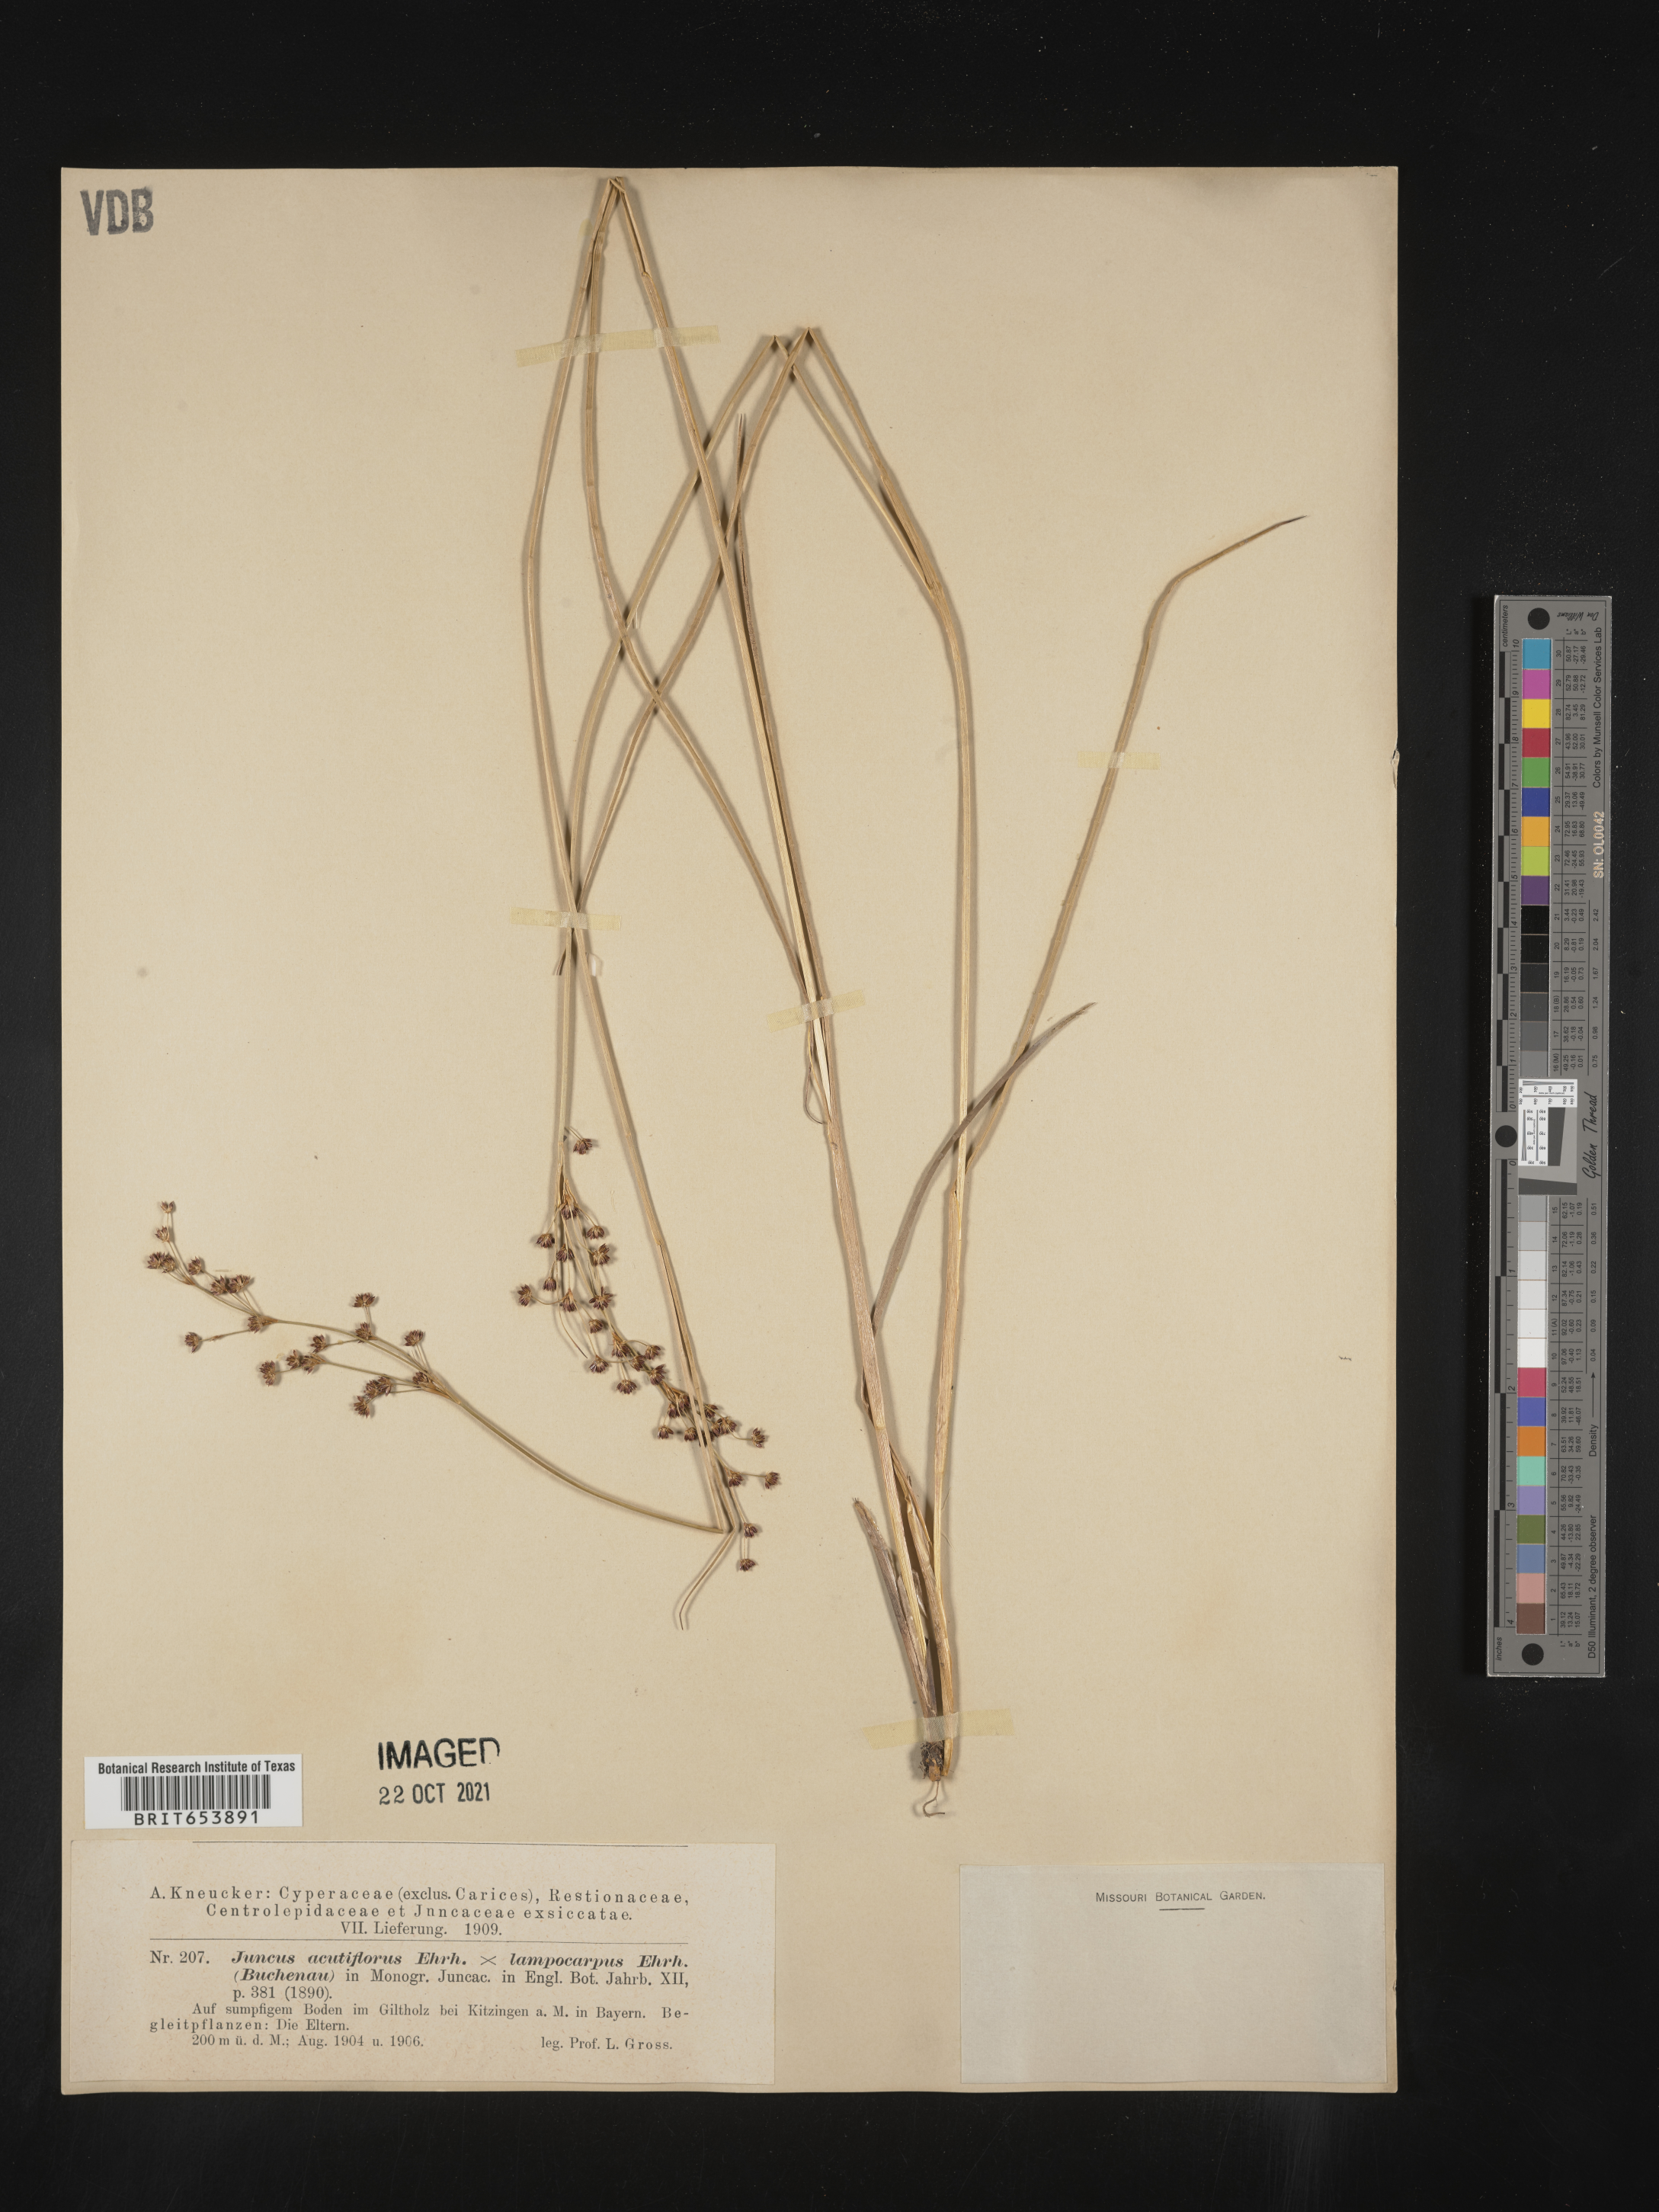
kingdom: Plantae
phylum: Tracheophyta
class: Liliopsida
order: Poales
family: Juncaceae
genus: Juncus
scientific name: Juncus
